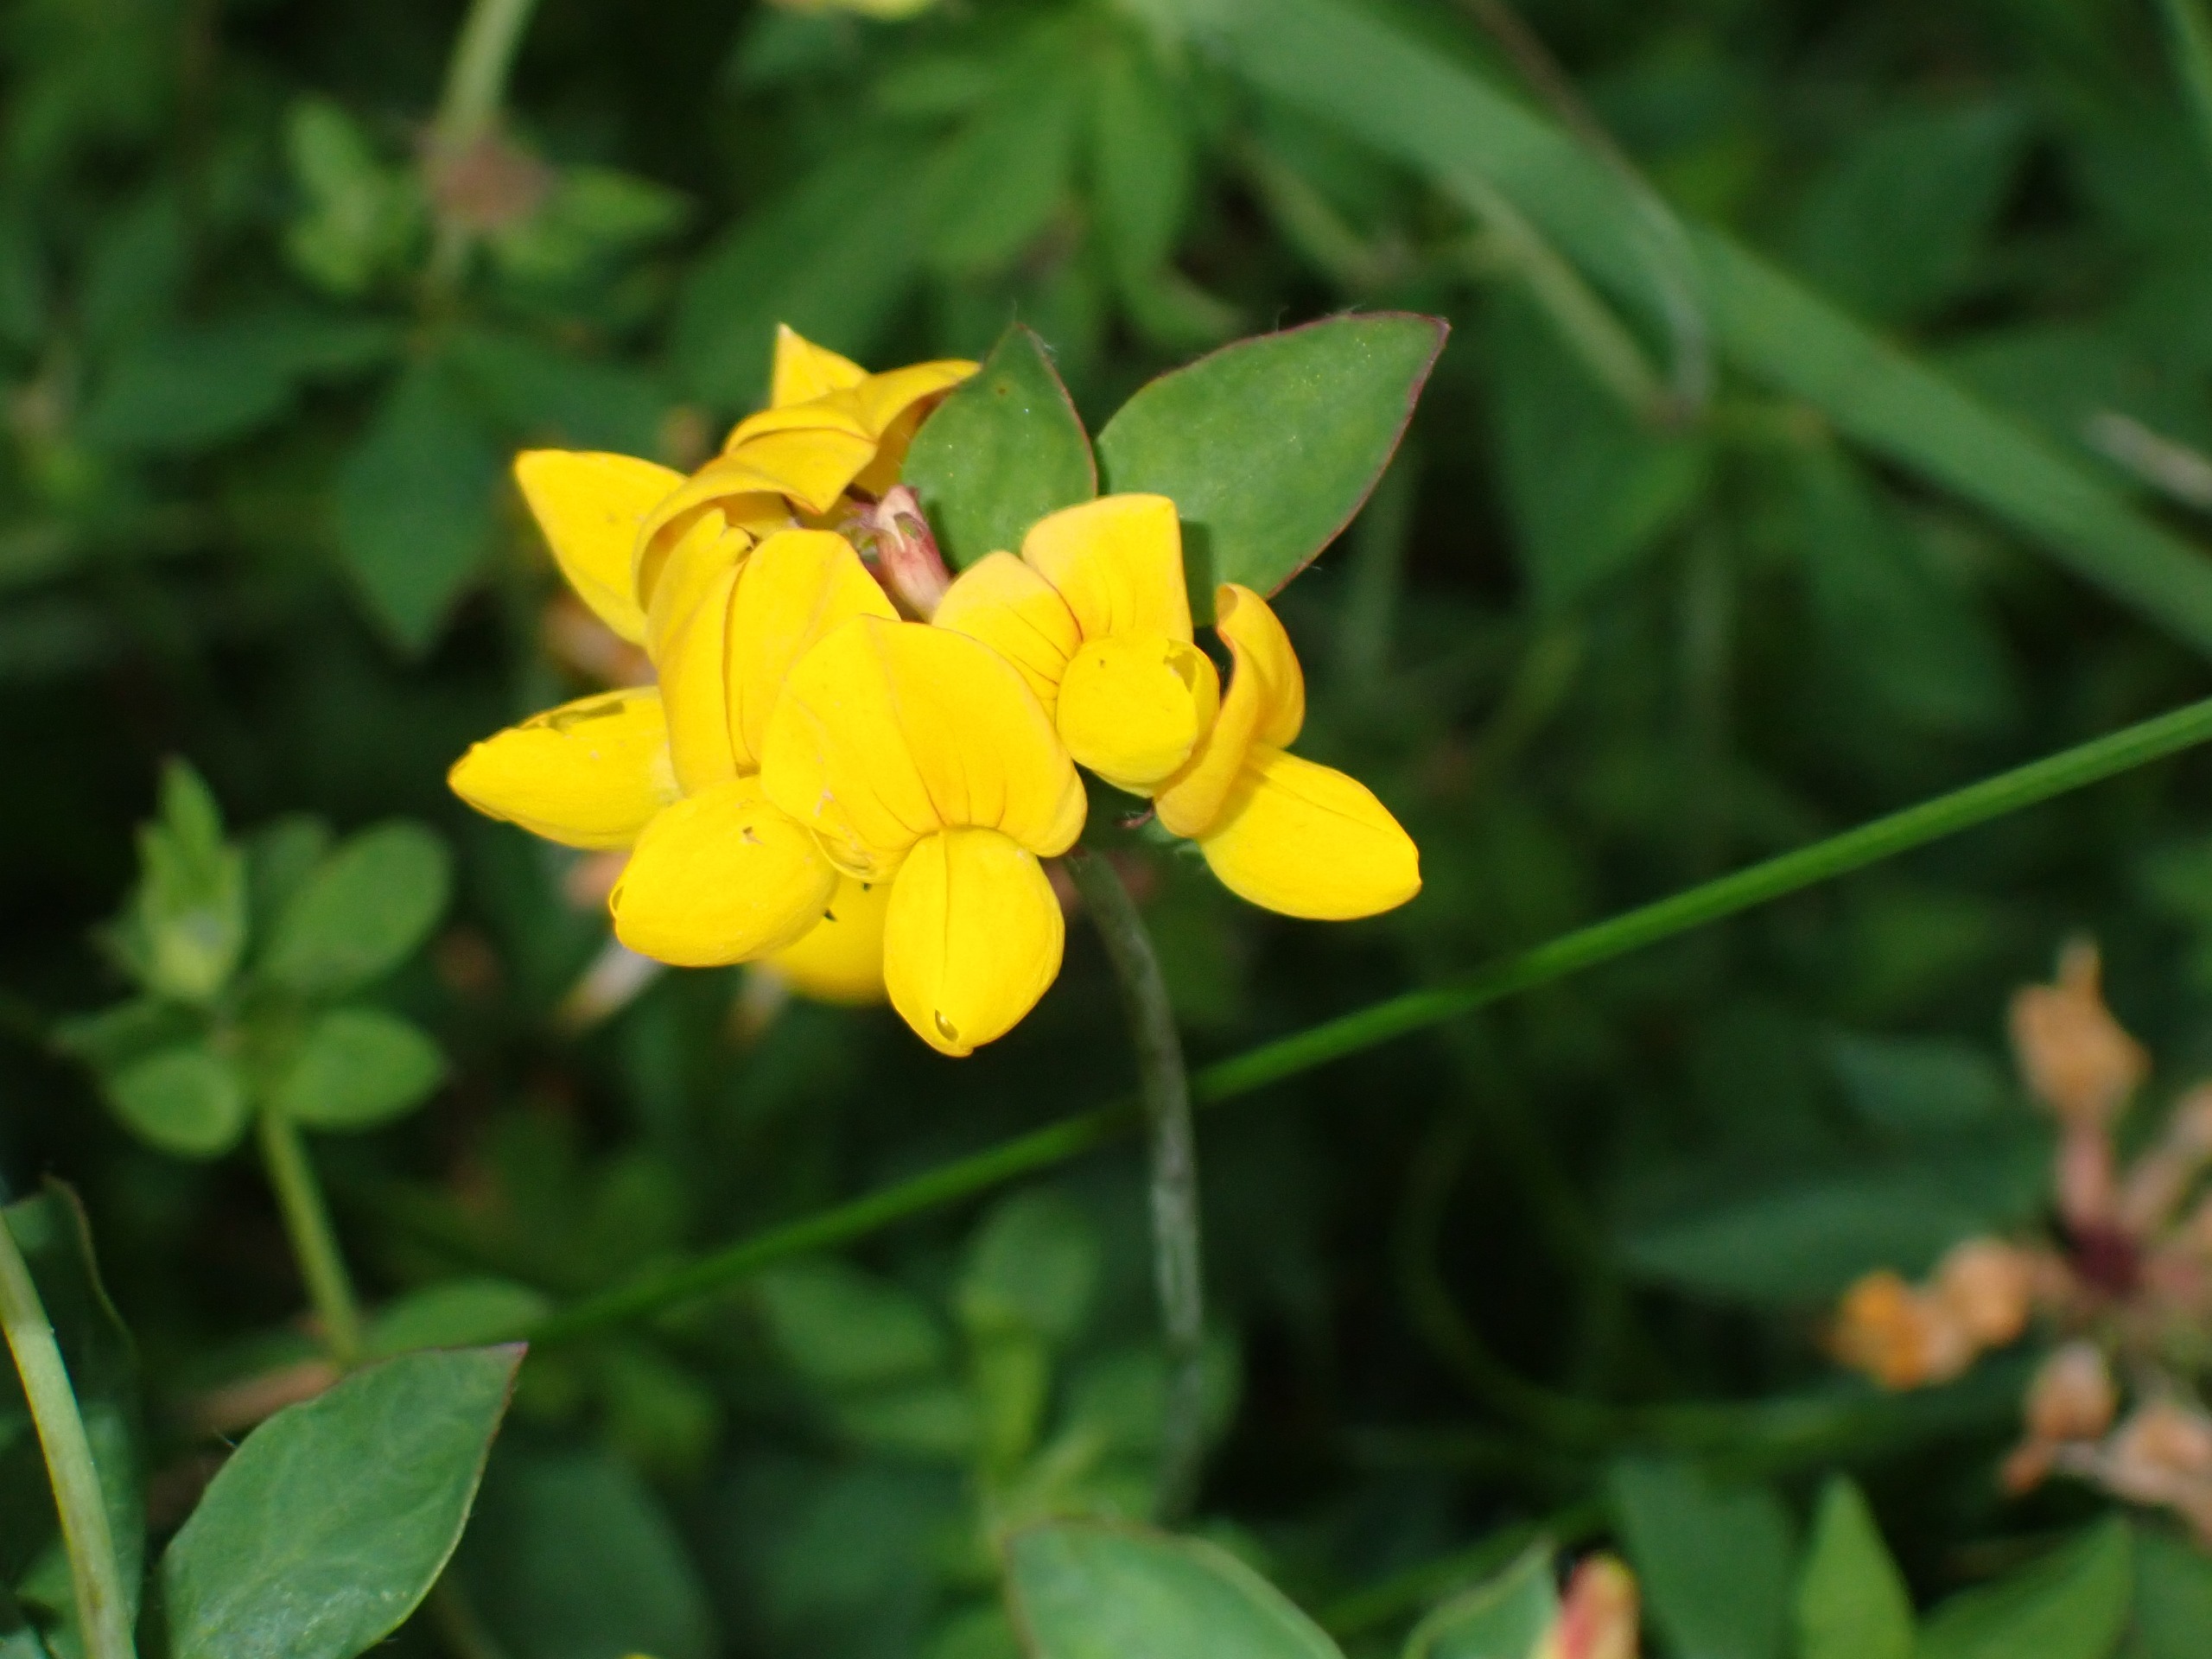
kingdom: Plantae
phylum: Tracheophyta
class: Magnoliopsida
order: Fabales
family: Fabaceae
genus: Lotus
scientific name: Lotus pedunculatus
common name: Sump-kællingetand
